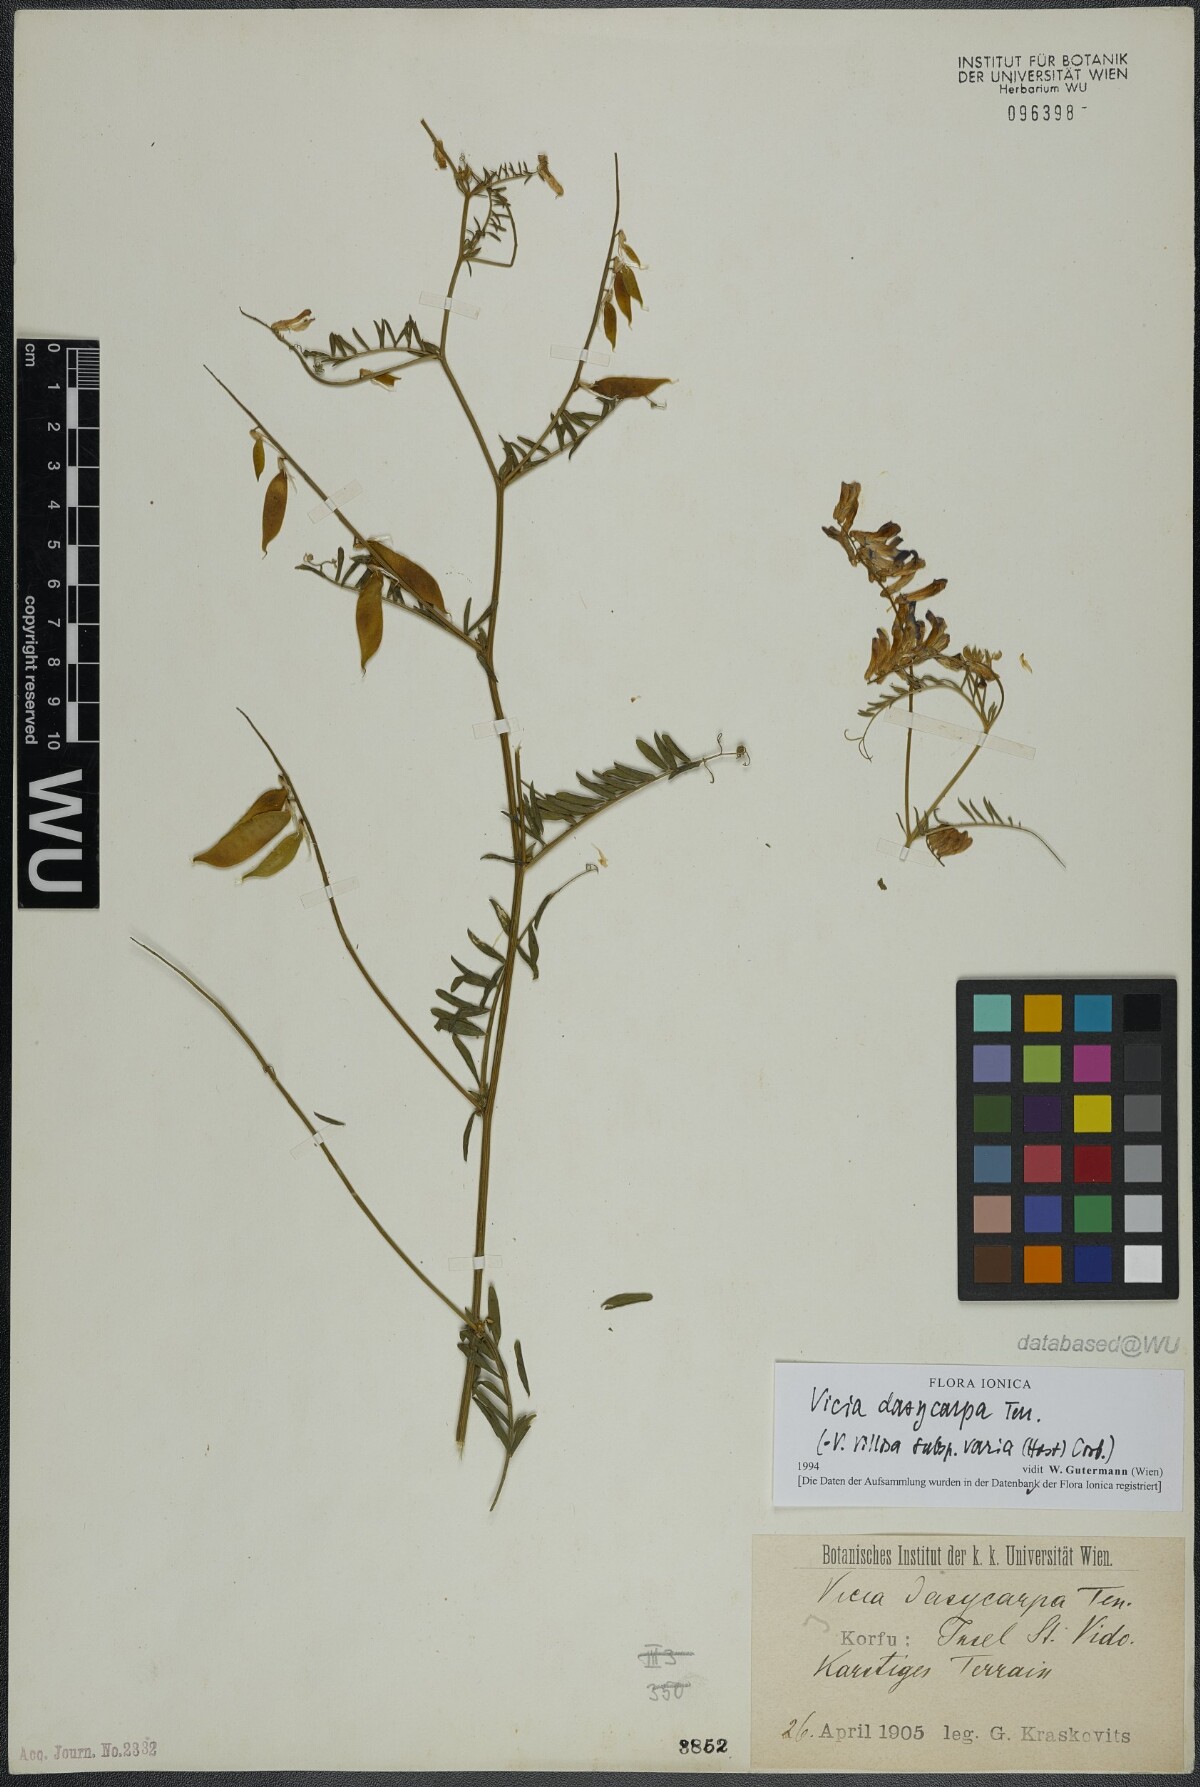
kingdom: Plantae
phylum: Tracheophyta
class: Magnoliopsida
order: Fabales
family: Fabaceae
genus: Vicia
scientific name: Vicia villosa
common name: Fodder vetch
